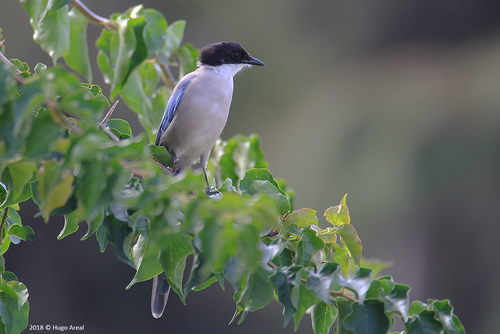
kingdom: Animalia
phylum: Chordata
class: Aves
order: Passeriformes
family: Corvidae
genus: Cyanopica
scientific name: Cyanopica cooki
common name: Iberian magpie
